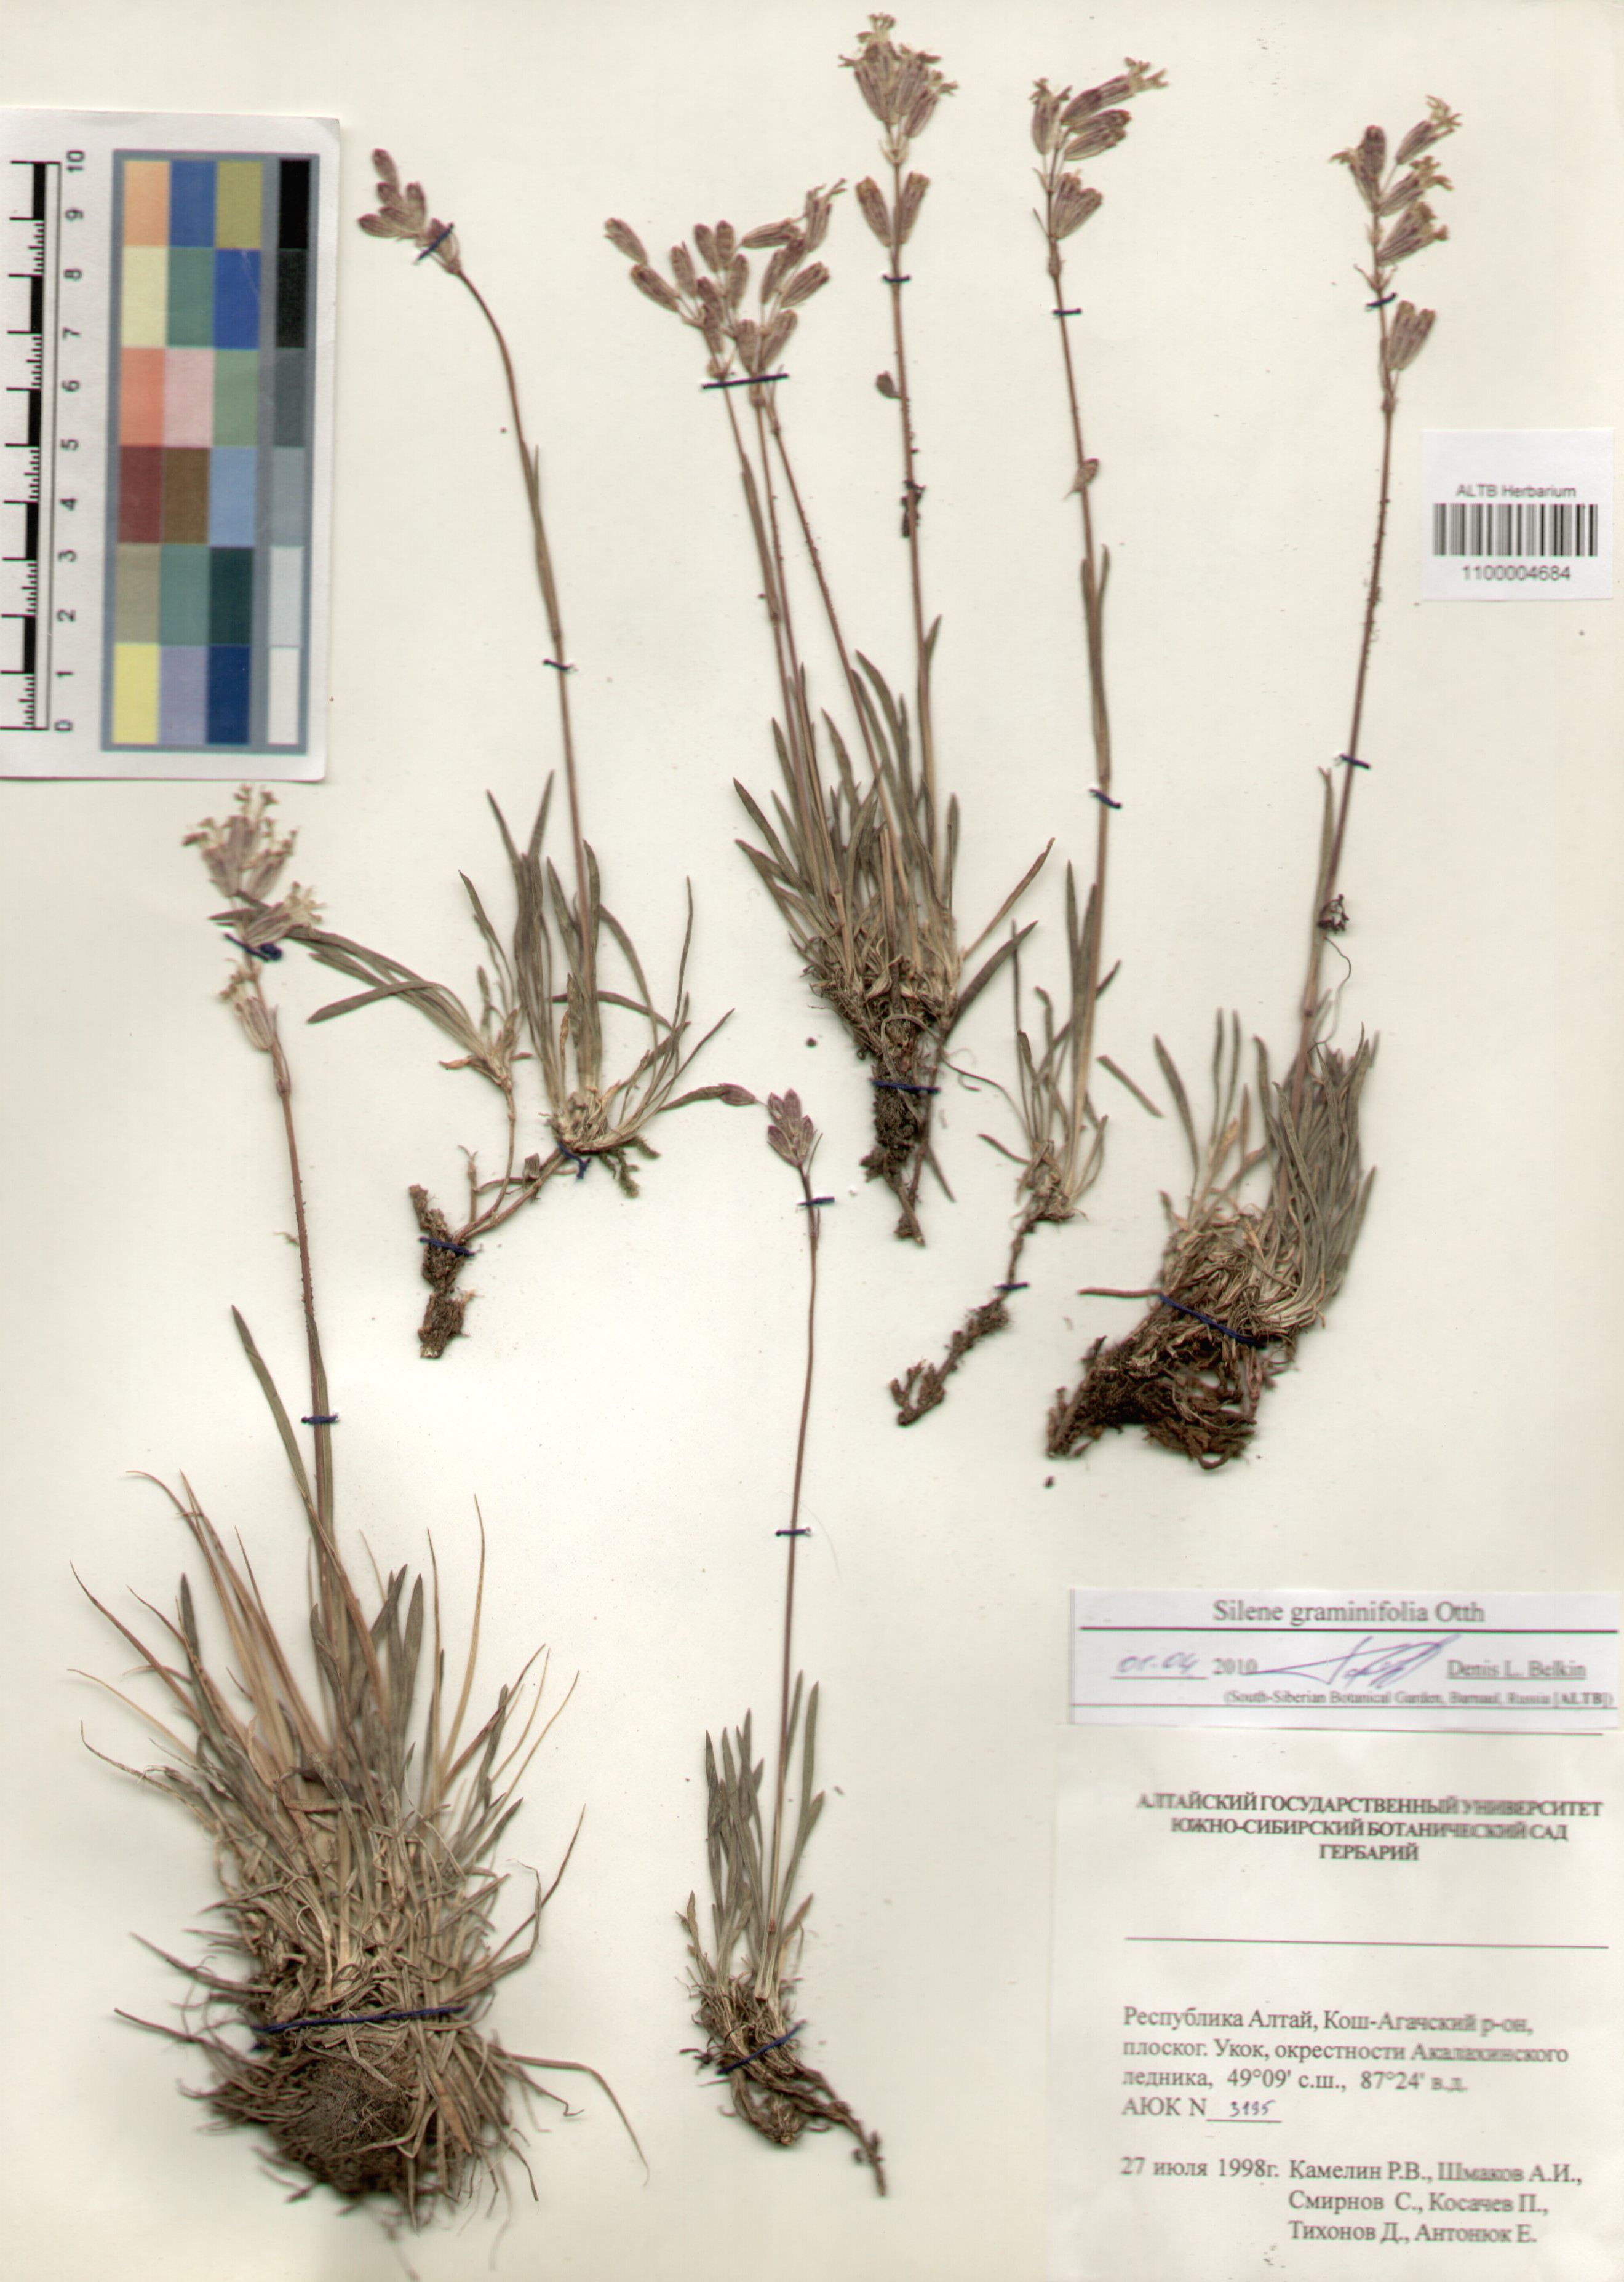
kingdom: Plantae
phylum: Tracheophyta
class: Magnoliopsida
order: Caryophyllales
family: Caryophyllaceae
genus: Silene
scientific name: Silene graminifolia
